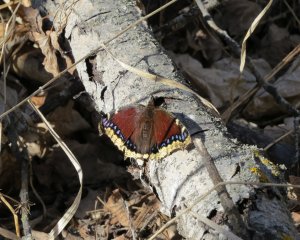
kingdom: Animalia
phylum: Arthropoda
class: Insecta
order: Lepidoptera
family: Nymphalidae
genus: Nymphalis
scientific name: Nymphalis antiopa
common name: Mourning Cloak
